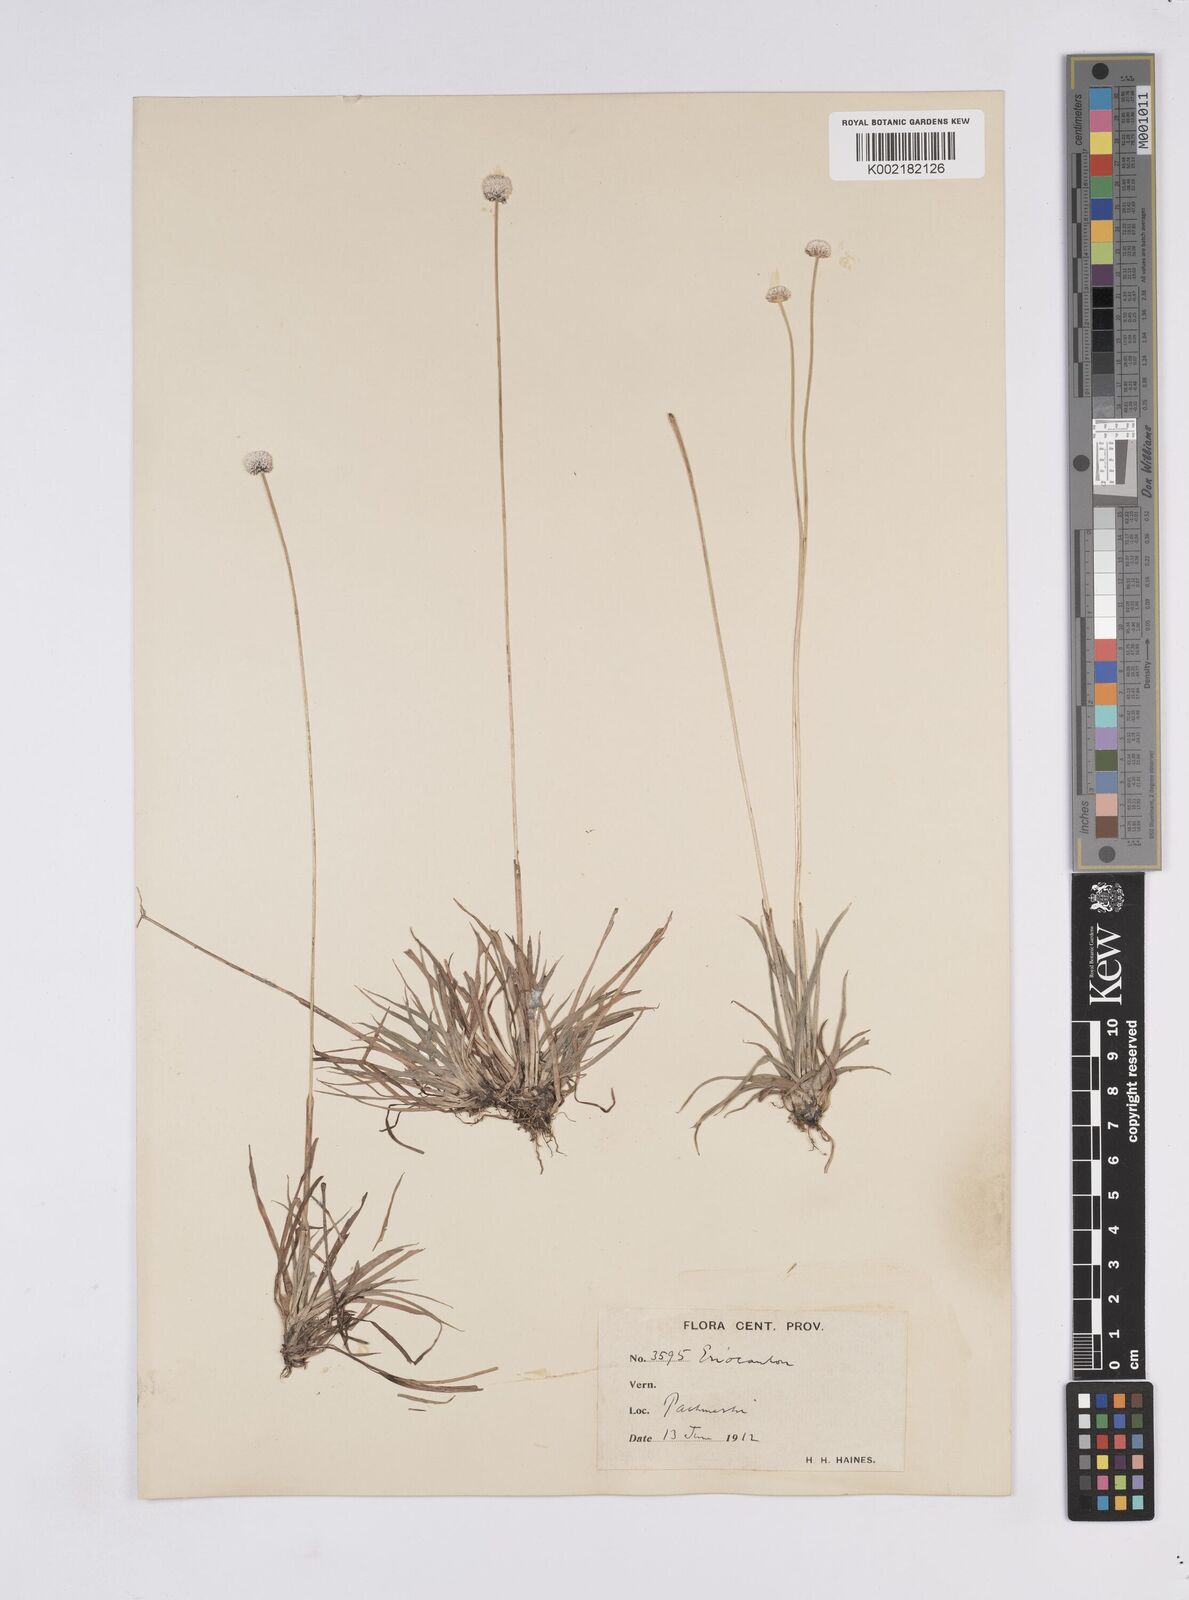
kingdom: Plantae
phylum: Tracheophyta
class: Liliopsida
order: Poales
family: Eriocaulaceae
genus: Eriocaulon
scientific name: Eriocaulon
